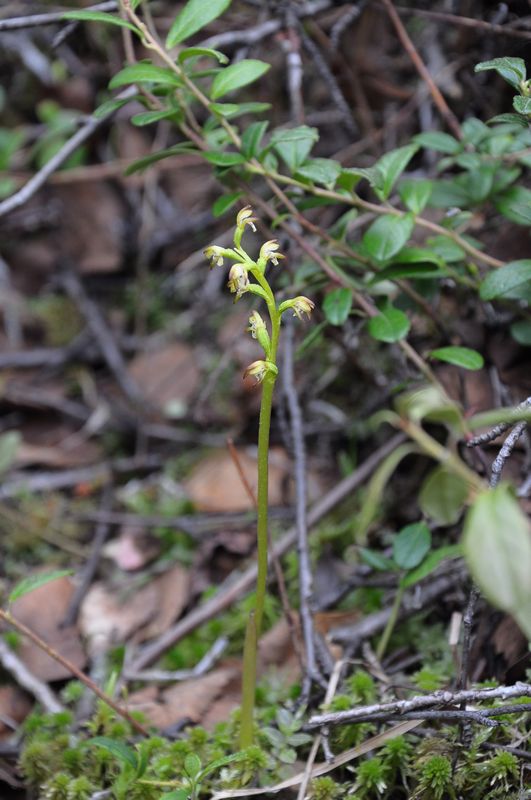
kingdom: Plantae
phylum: Tracheophyta
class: Liliopsida
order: Asparagales
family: Orchidaceae
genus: Corallorhiza
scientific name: Corallorhiza trifida
